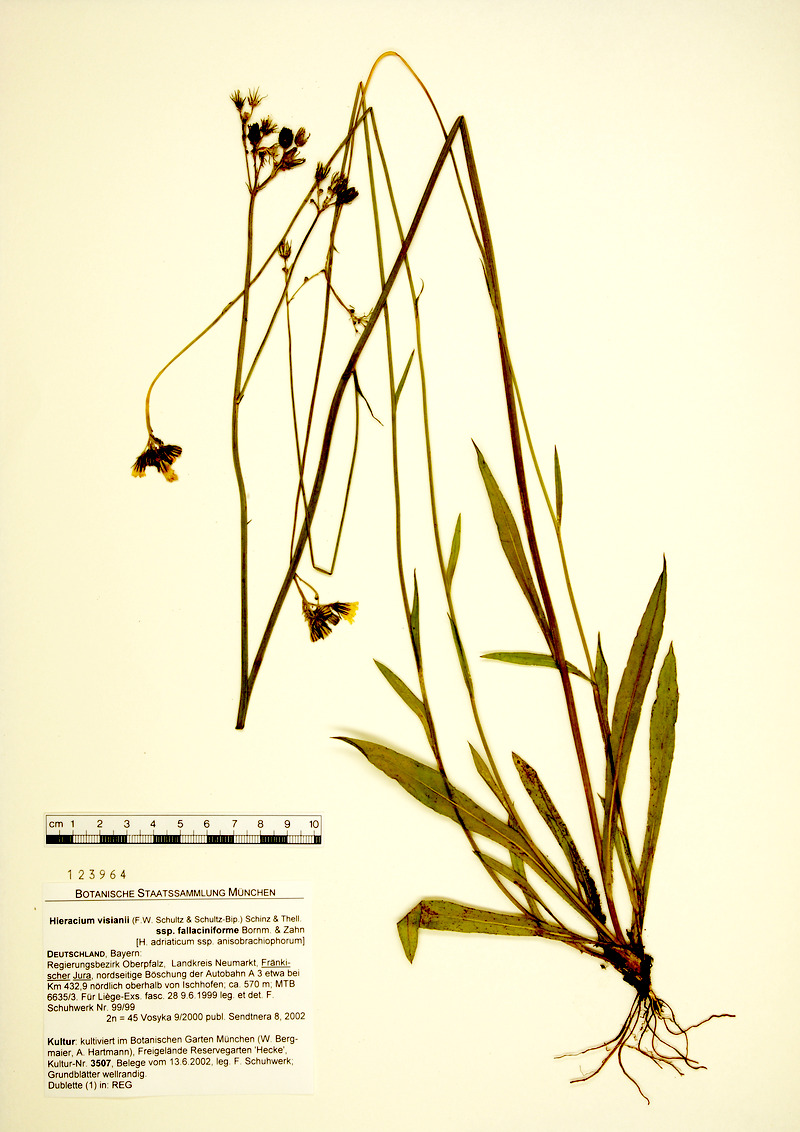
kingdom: Plantae
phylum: Tracheophyta
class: Magnoliopsida
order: Asterales
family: Asteraceae
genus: Pilosella
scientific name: Pilosella visianii
